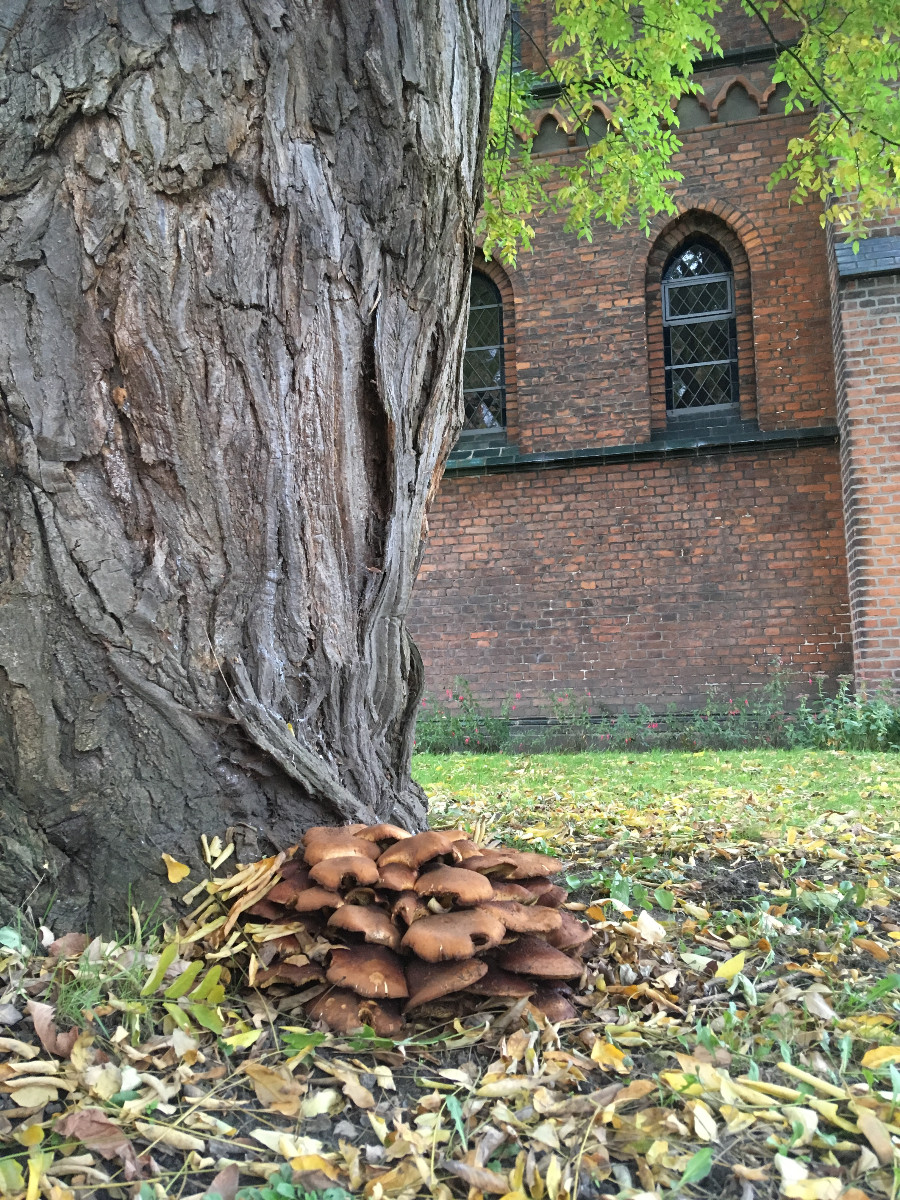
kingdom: Fungi
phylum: Basidiomycota
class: Agaricomycetes
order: Agaricales
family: Strophariaceae
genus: Pholiota
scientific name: Pholiota squarrosa
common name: krumskællet skælhat
